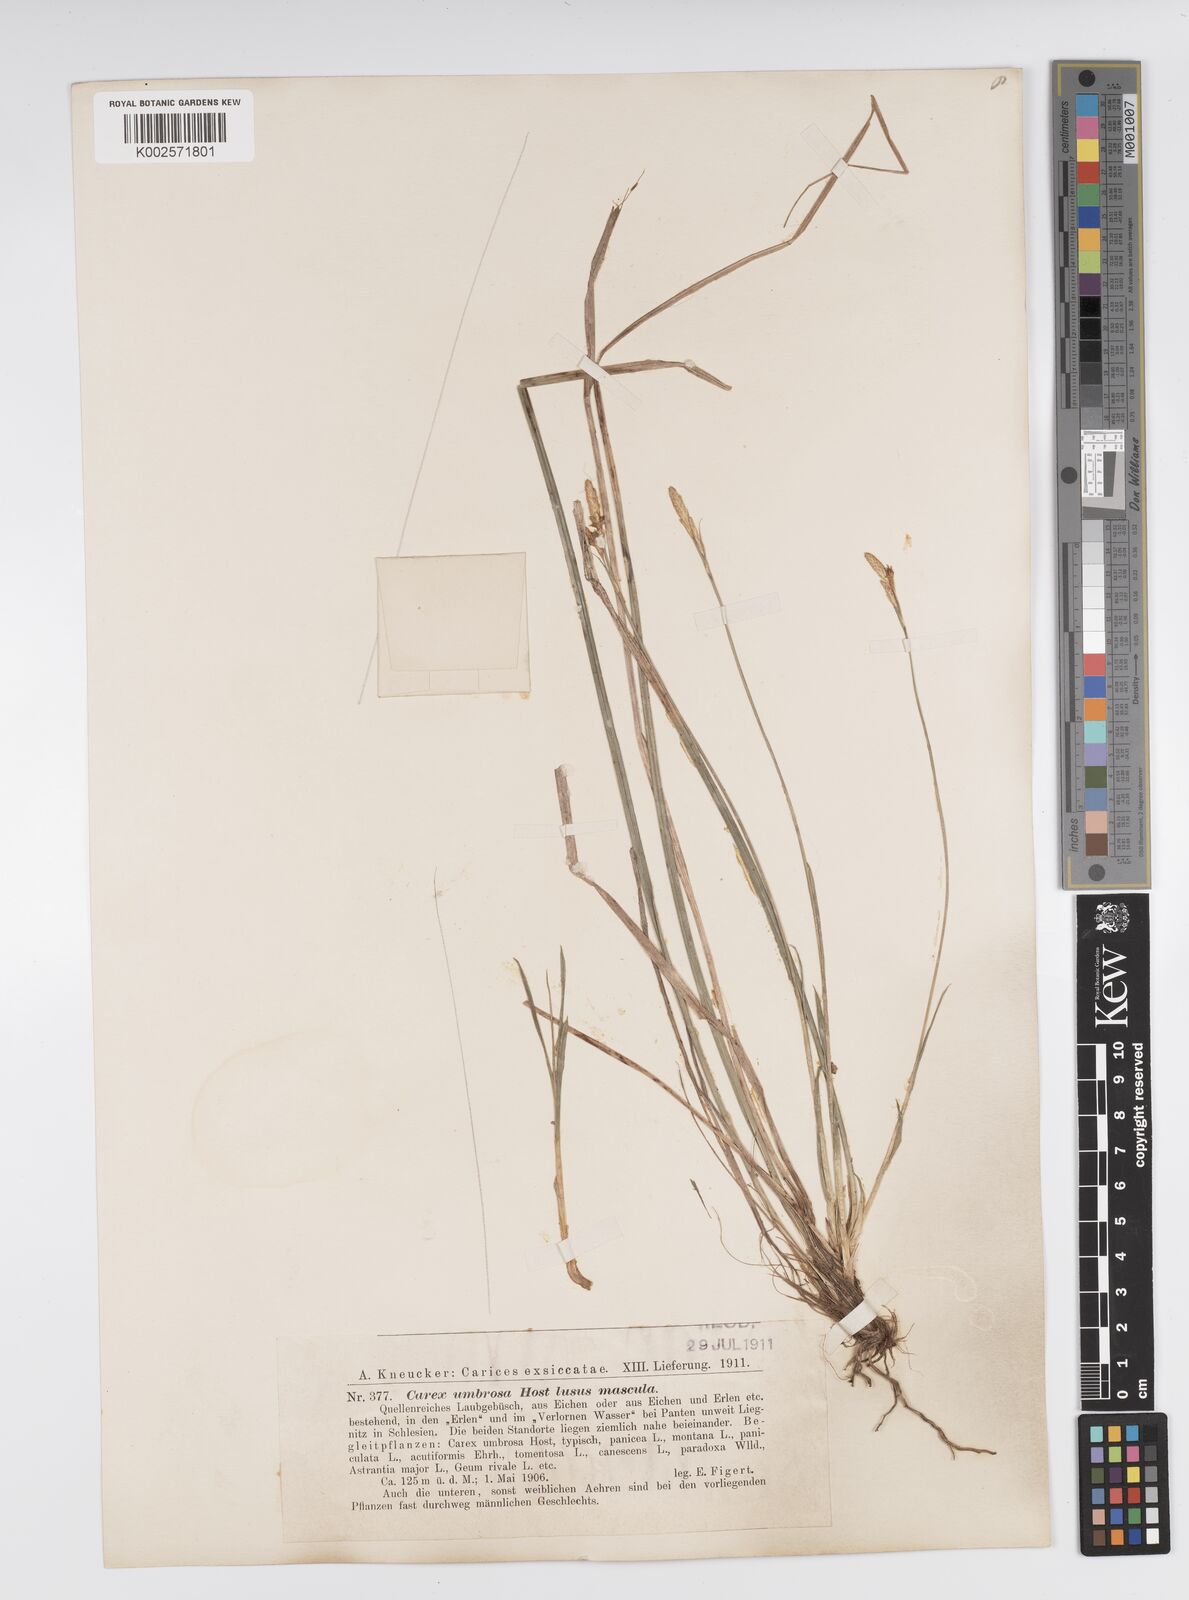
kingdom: Plantae
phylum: Tracheophyta
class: Liliopsida
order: Poales
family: Cyperaceae
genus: Carex
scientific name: Carex umbrosa
